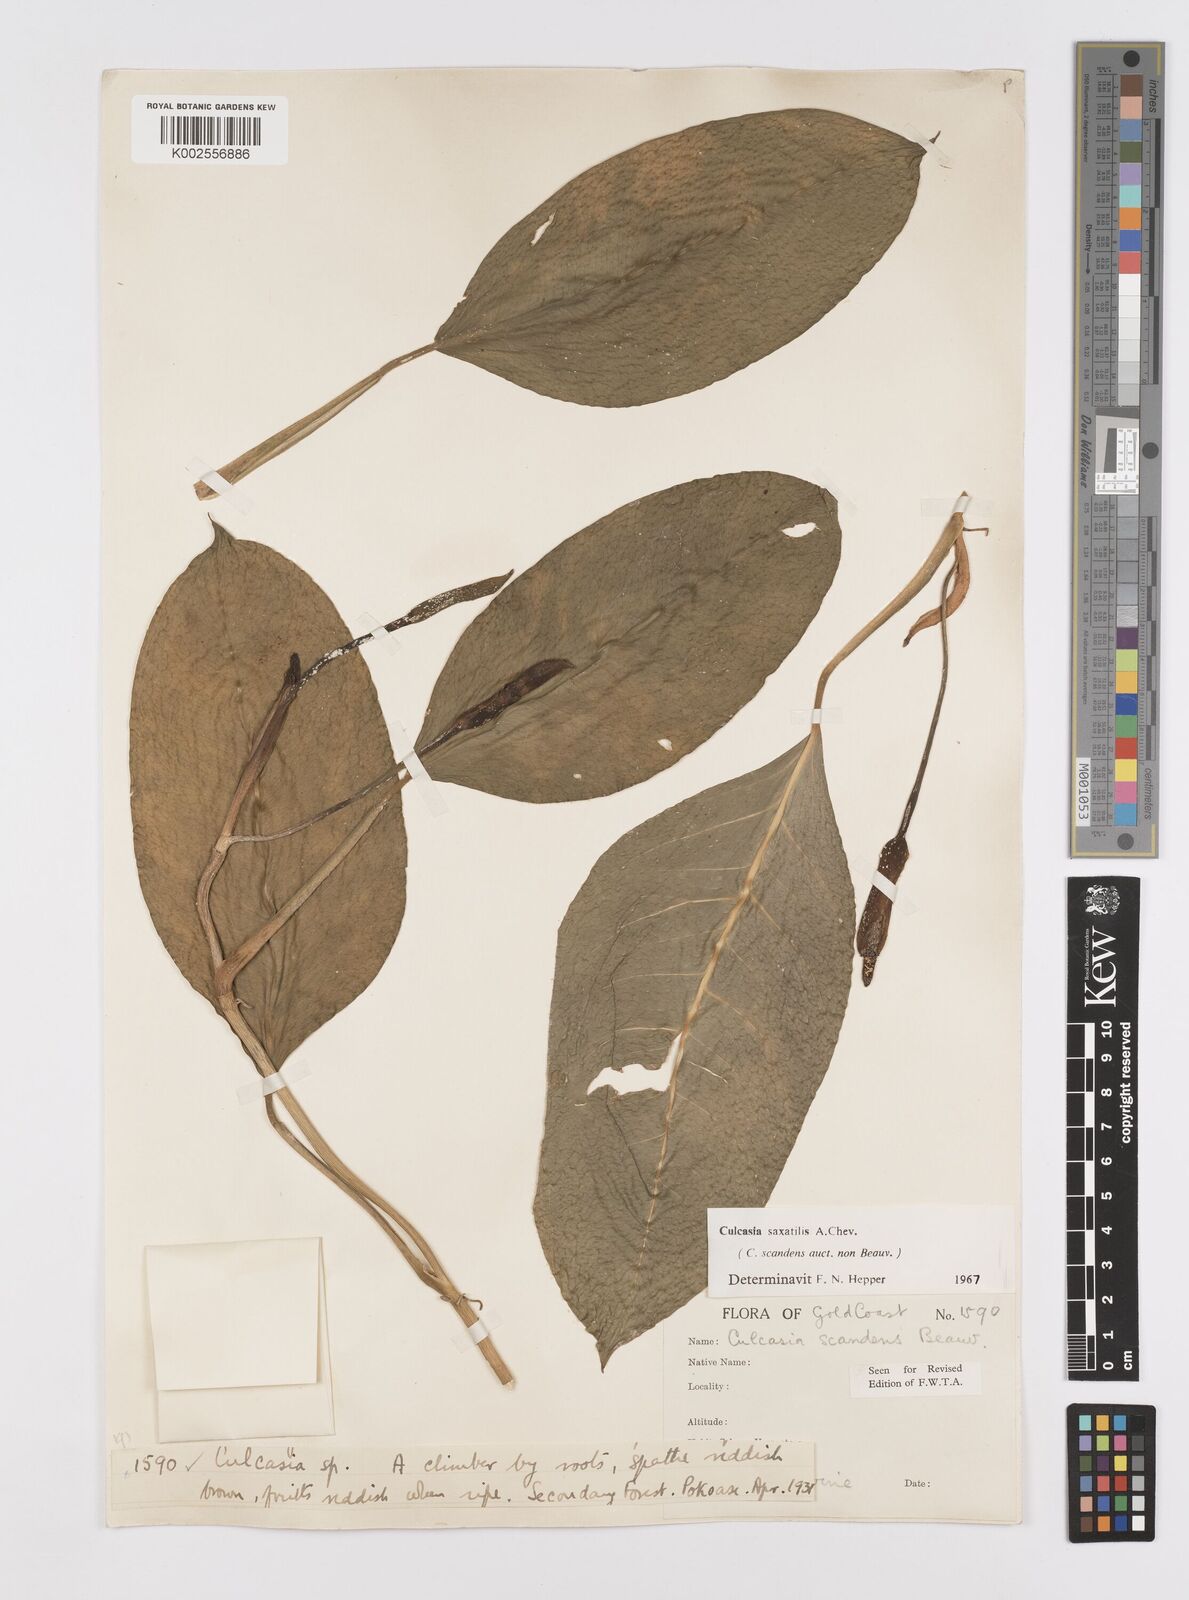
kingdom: Plantae
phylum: Tracheophyta
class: Liliopsida
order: Alismatales
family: Araceae
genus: Culcasia
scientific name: Culcasia scandens
